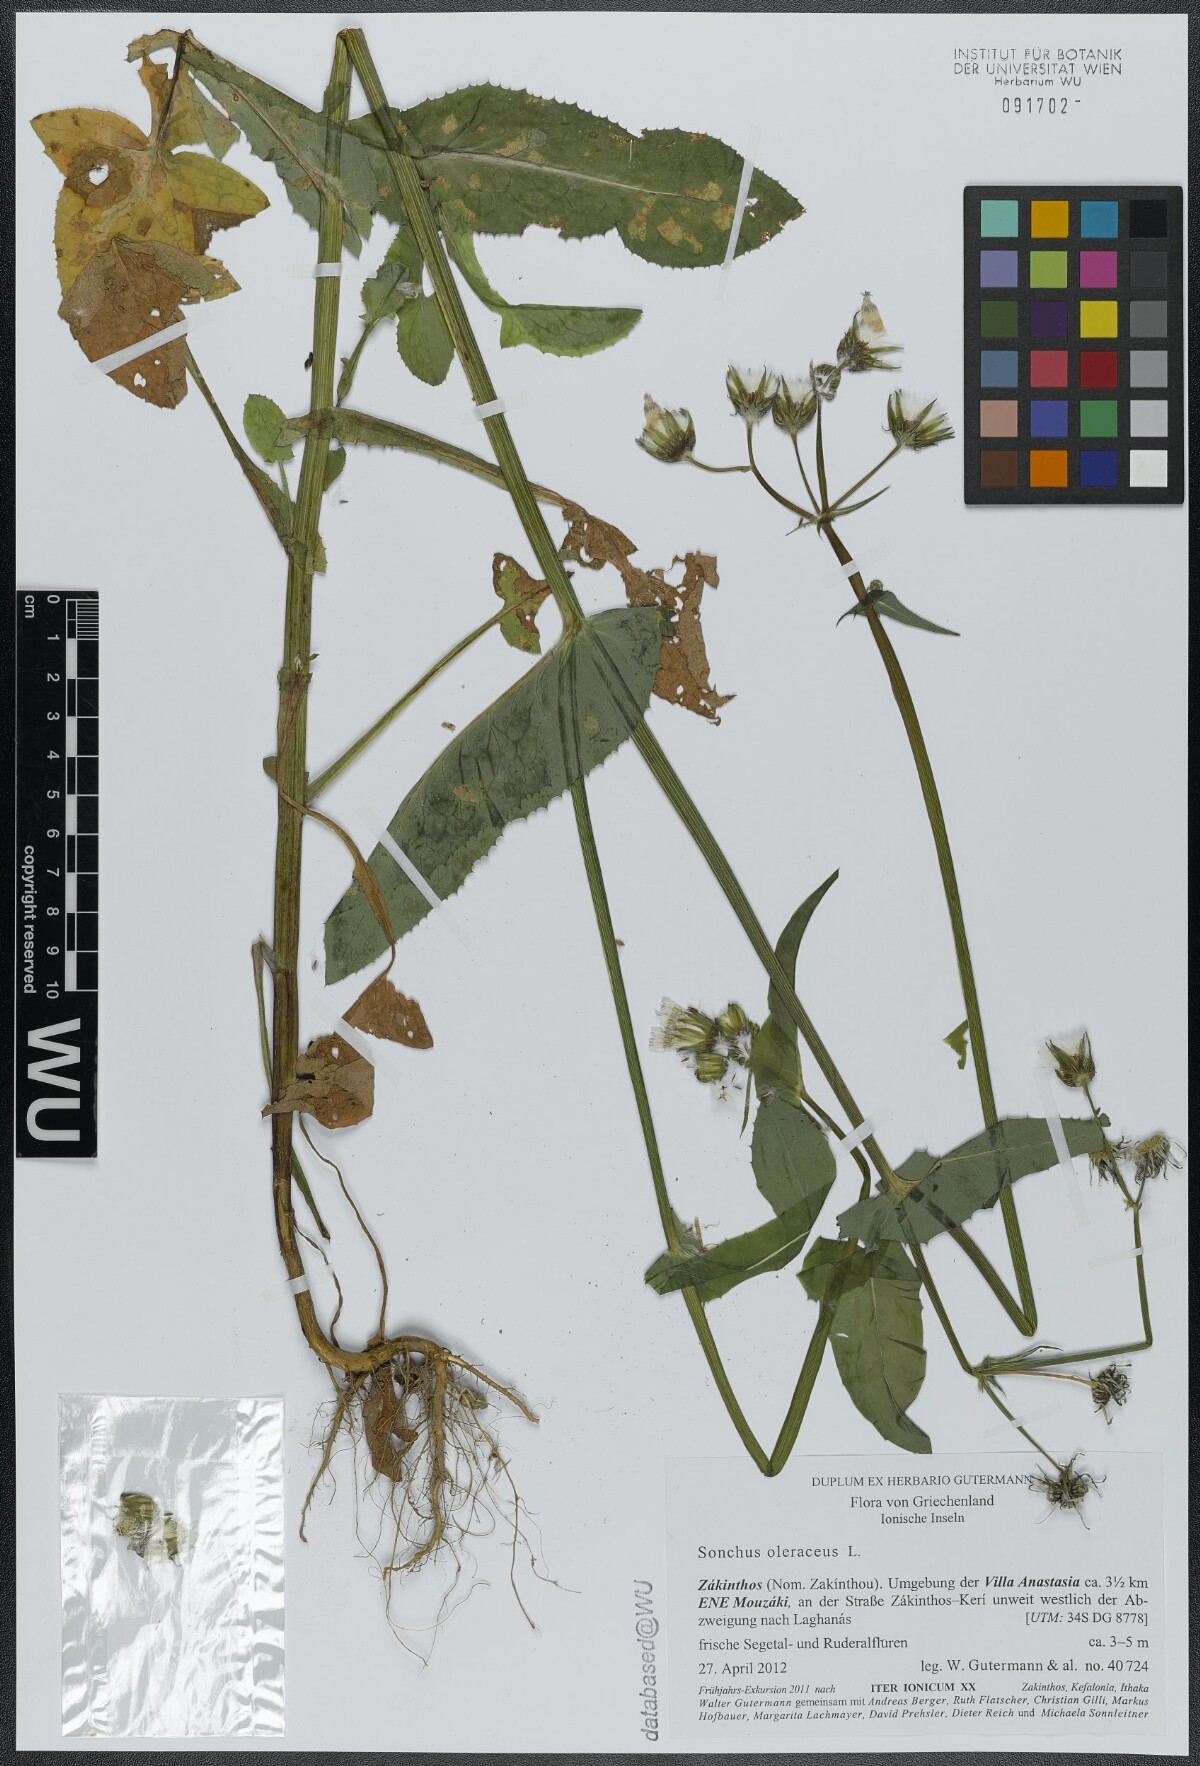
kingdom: Plantae
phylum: Tracheophyta
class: Magnoliopsida
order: Asterales
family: Asteraceae
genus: Sonchus
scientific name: Sonchus oleraceus
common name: Common sowthistle
